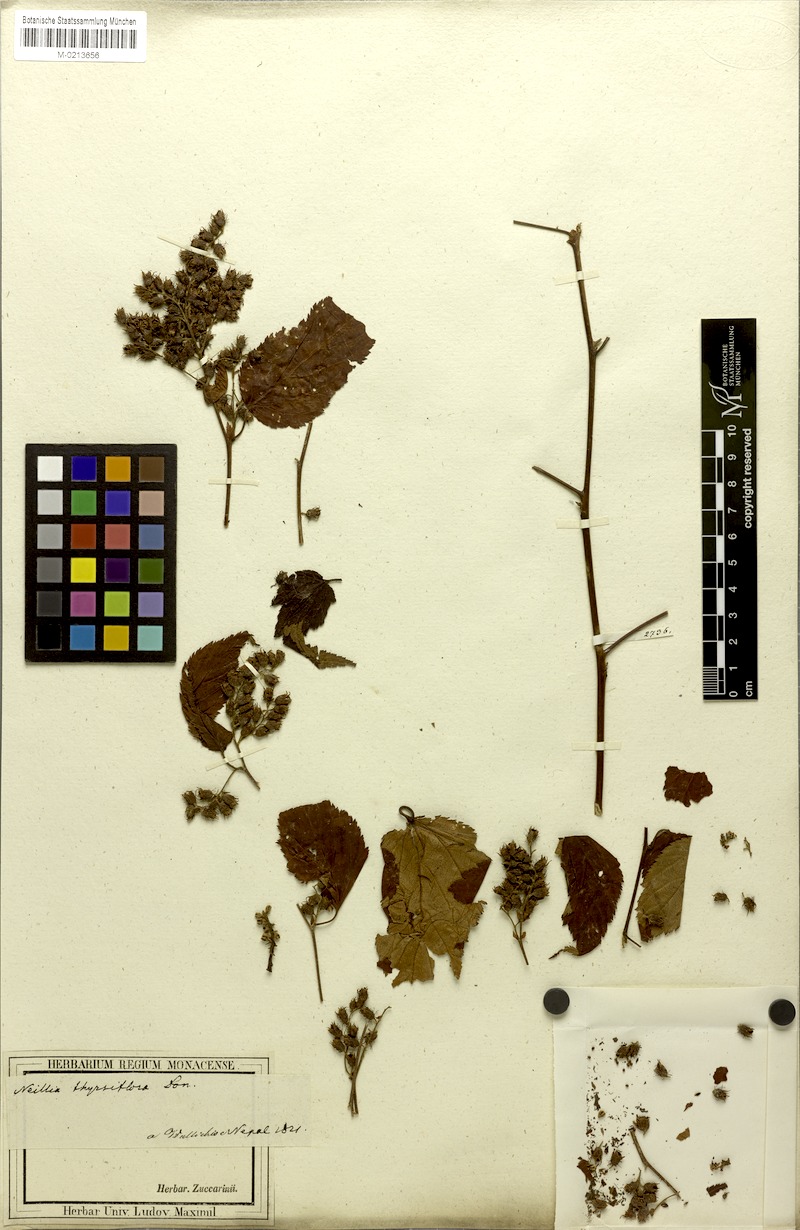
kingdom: Plantae
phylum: Tracheophyta
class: Magnoliopsida
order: Rosales
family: Rosaceae
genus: Neillia
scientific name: Neillia thyrsiflora
